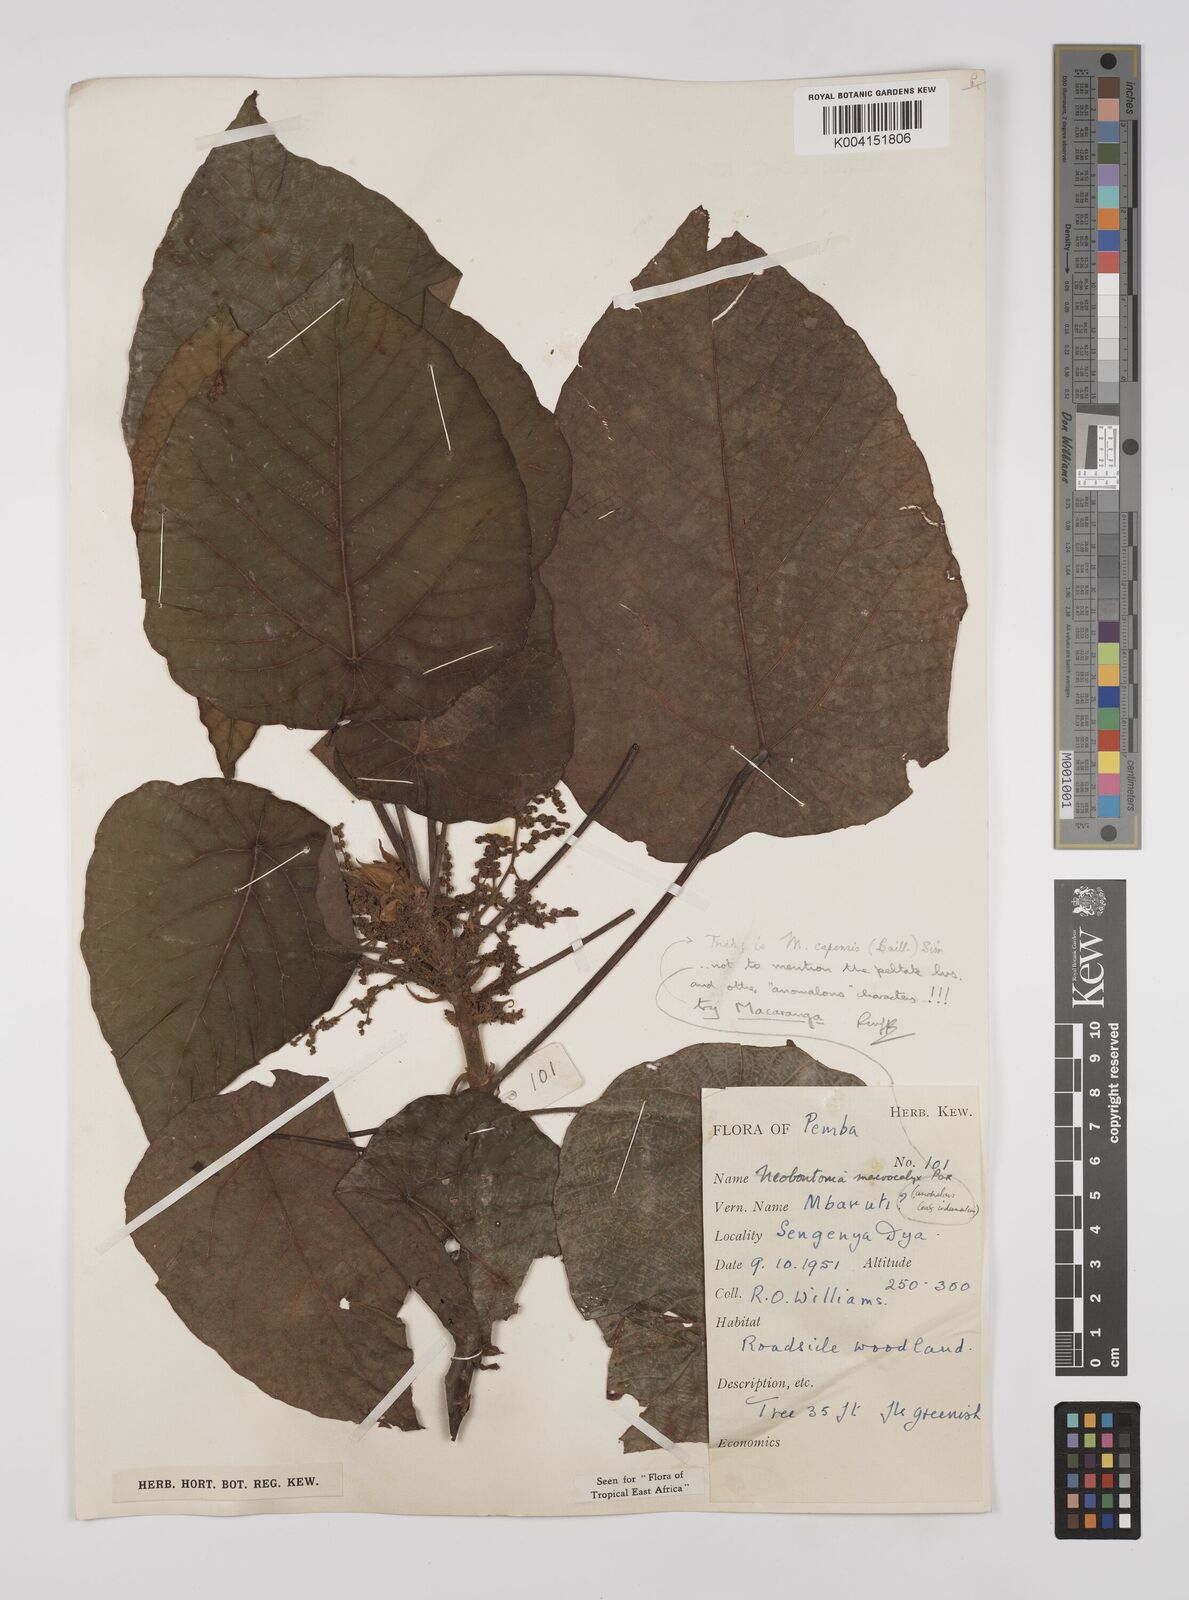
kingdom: Plantae
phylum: Tracheophyta
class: Magnoliopsida
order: Malpighiales
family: Euphorbiaceae
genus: Macaranga
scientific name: Macaranga capensis
